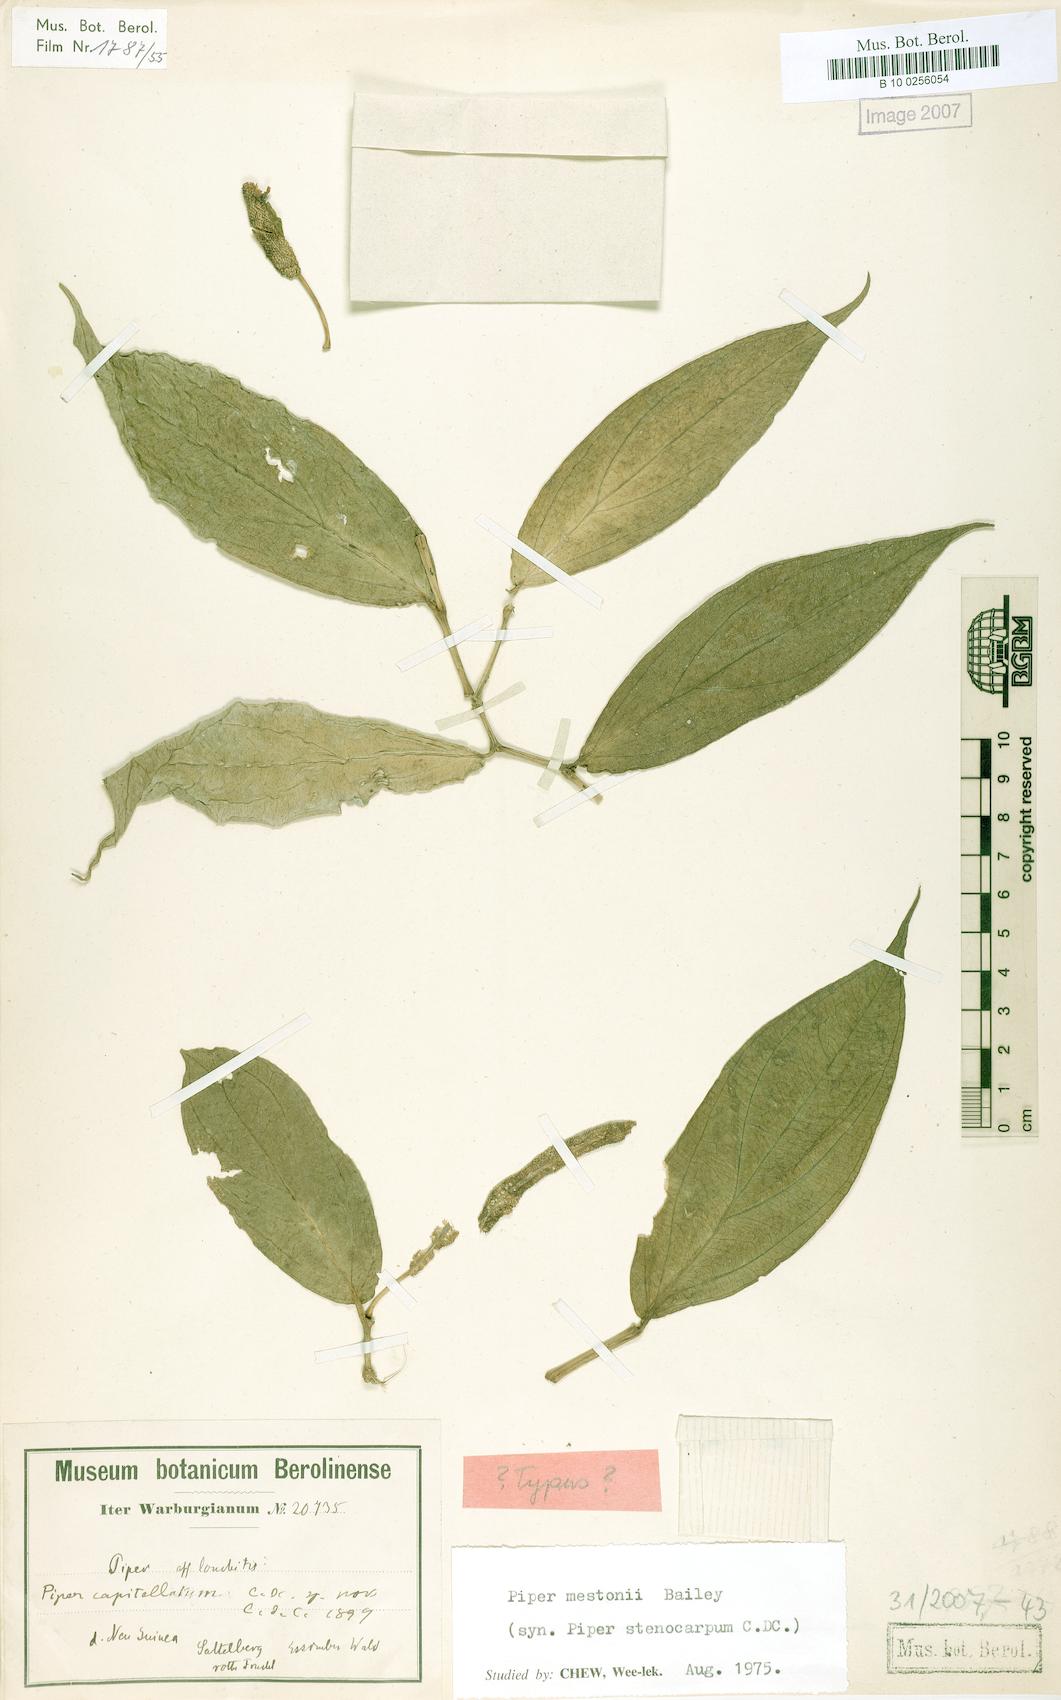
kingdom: Plantae
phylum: Tracheophyta
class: Magnoliopsida
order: Piperales
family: Piperaceae
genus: Piper
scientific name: Piper mestonii
